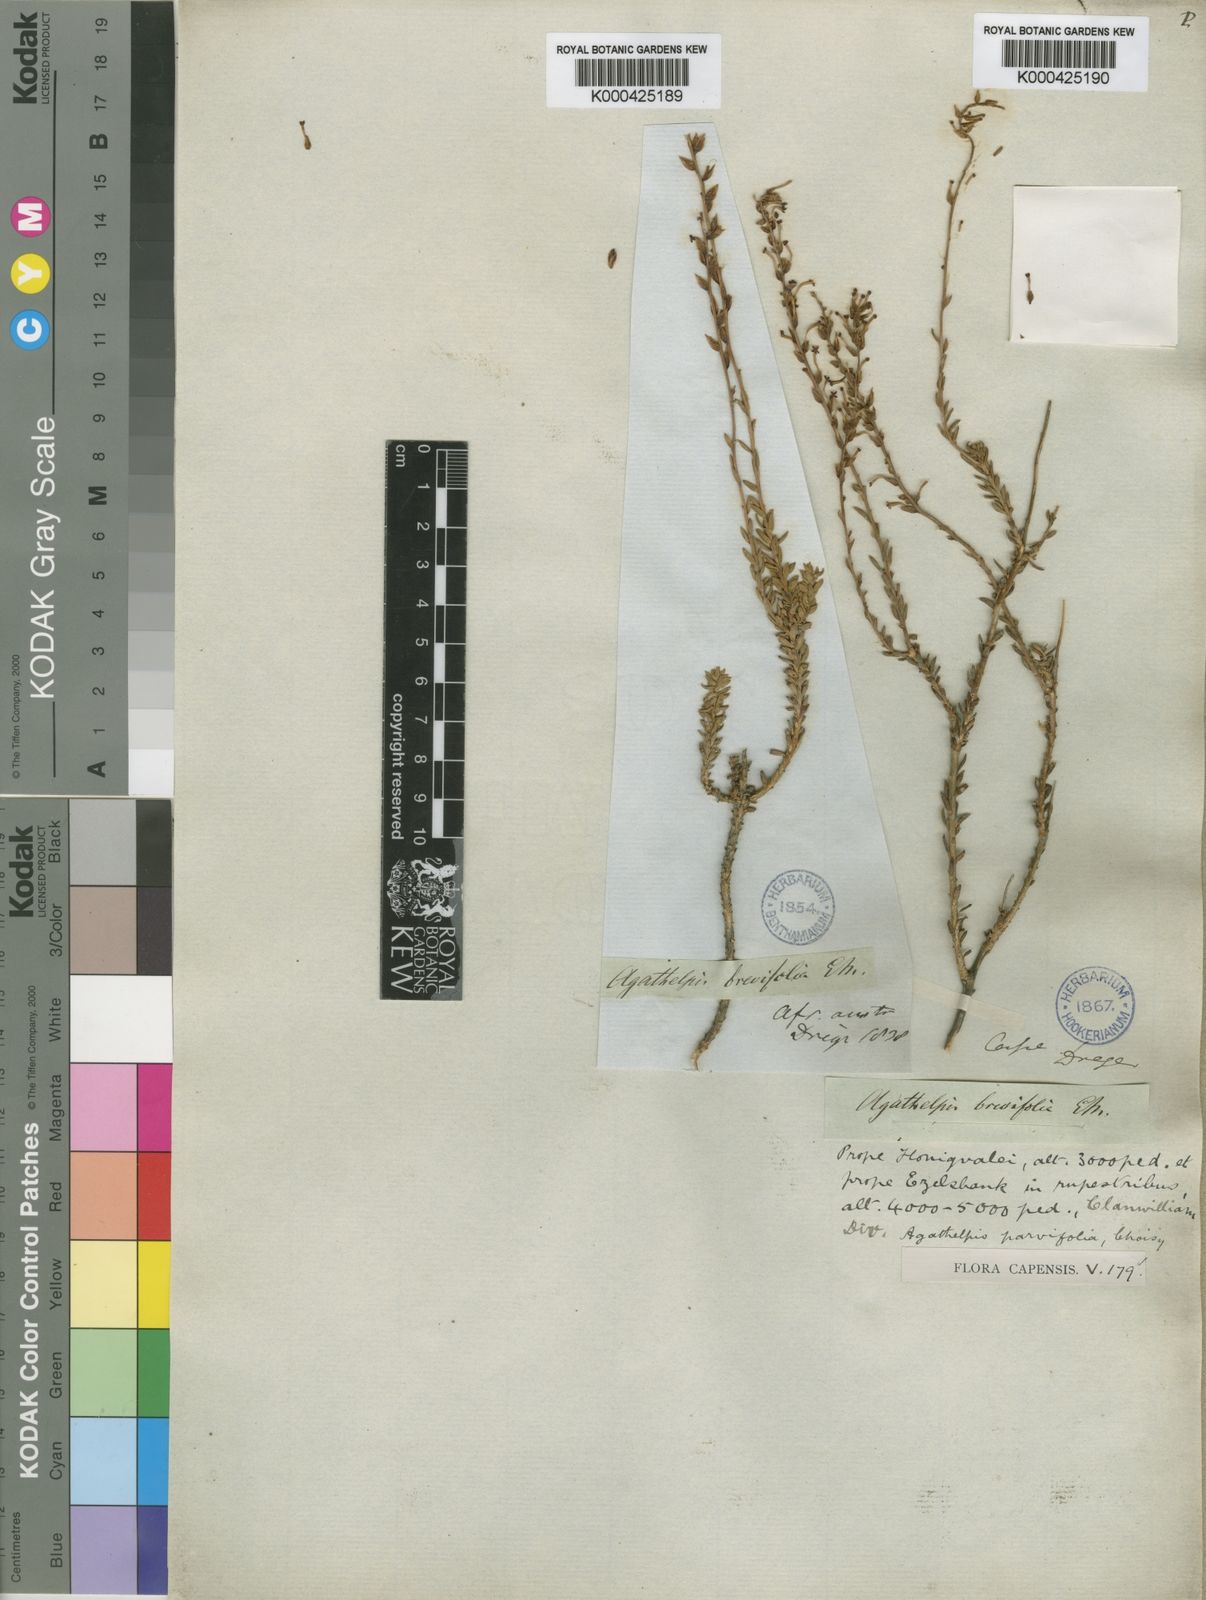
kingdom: Plantae
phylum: Tracheophyta
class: Magnoliopsida
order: Lamiales
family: Scrophulariaceae
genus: Microdon
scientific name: Microdon dubius
